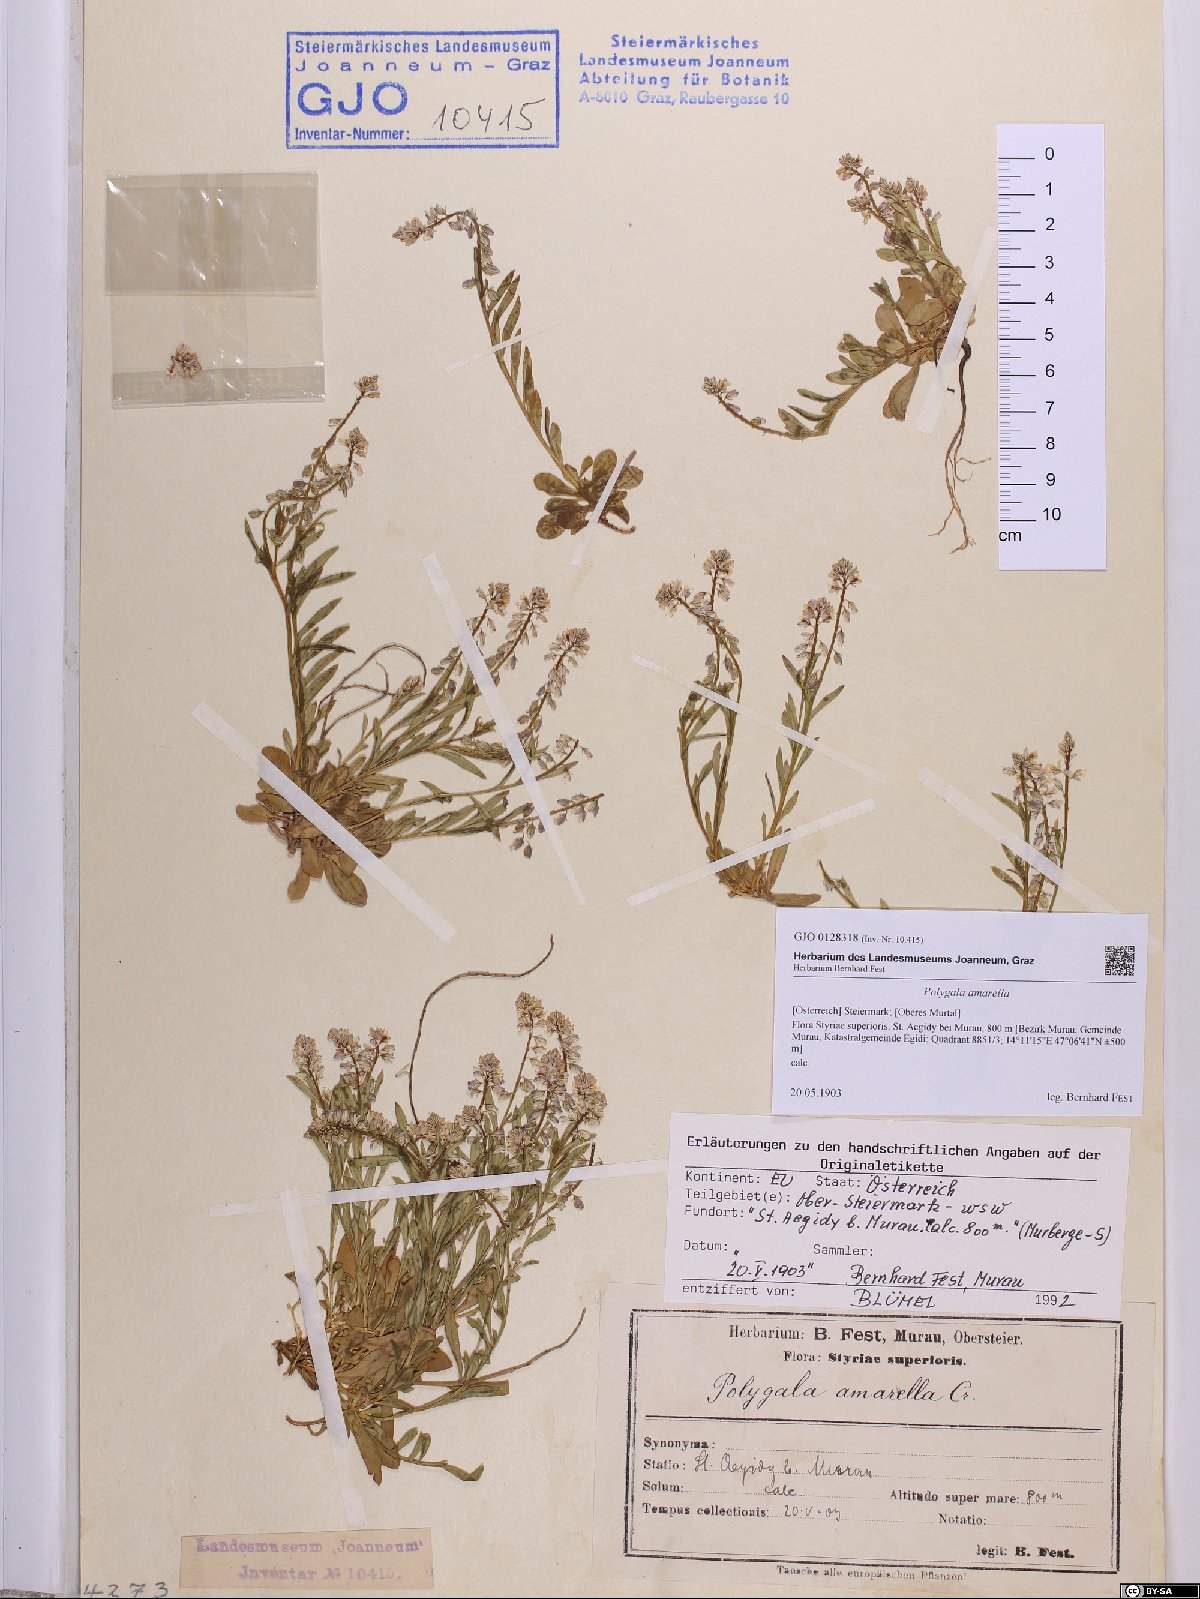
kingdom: Plantae
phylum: Tracheophyta
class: Magnoliopsida
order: Fabales
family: Polygalaceae
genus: Polygala
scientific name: Polygala amarella
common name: Dwarf milkwort
